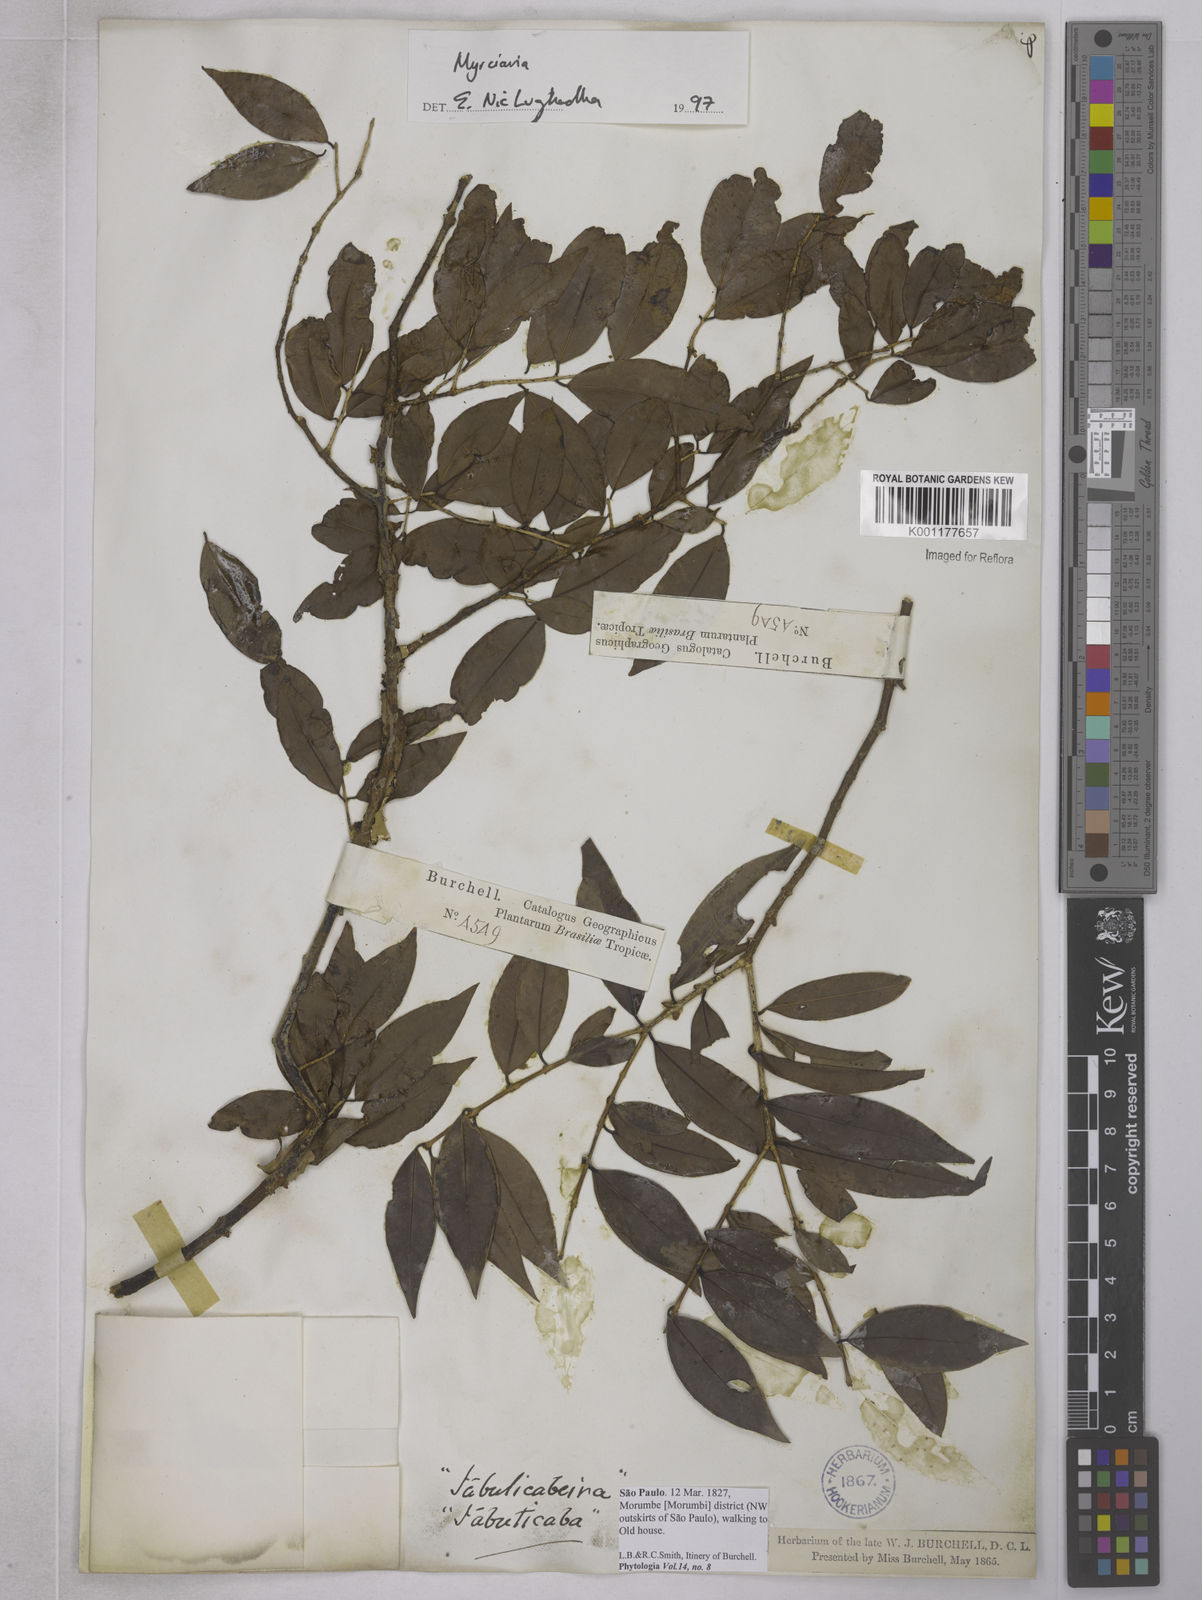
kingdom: Plantae
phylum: Tracheophyta
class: Magnoliopsida
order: Myrtales
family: Myrtaceae
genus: Plinia
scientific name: Plinia
